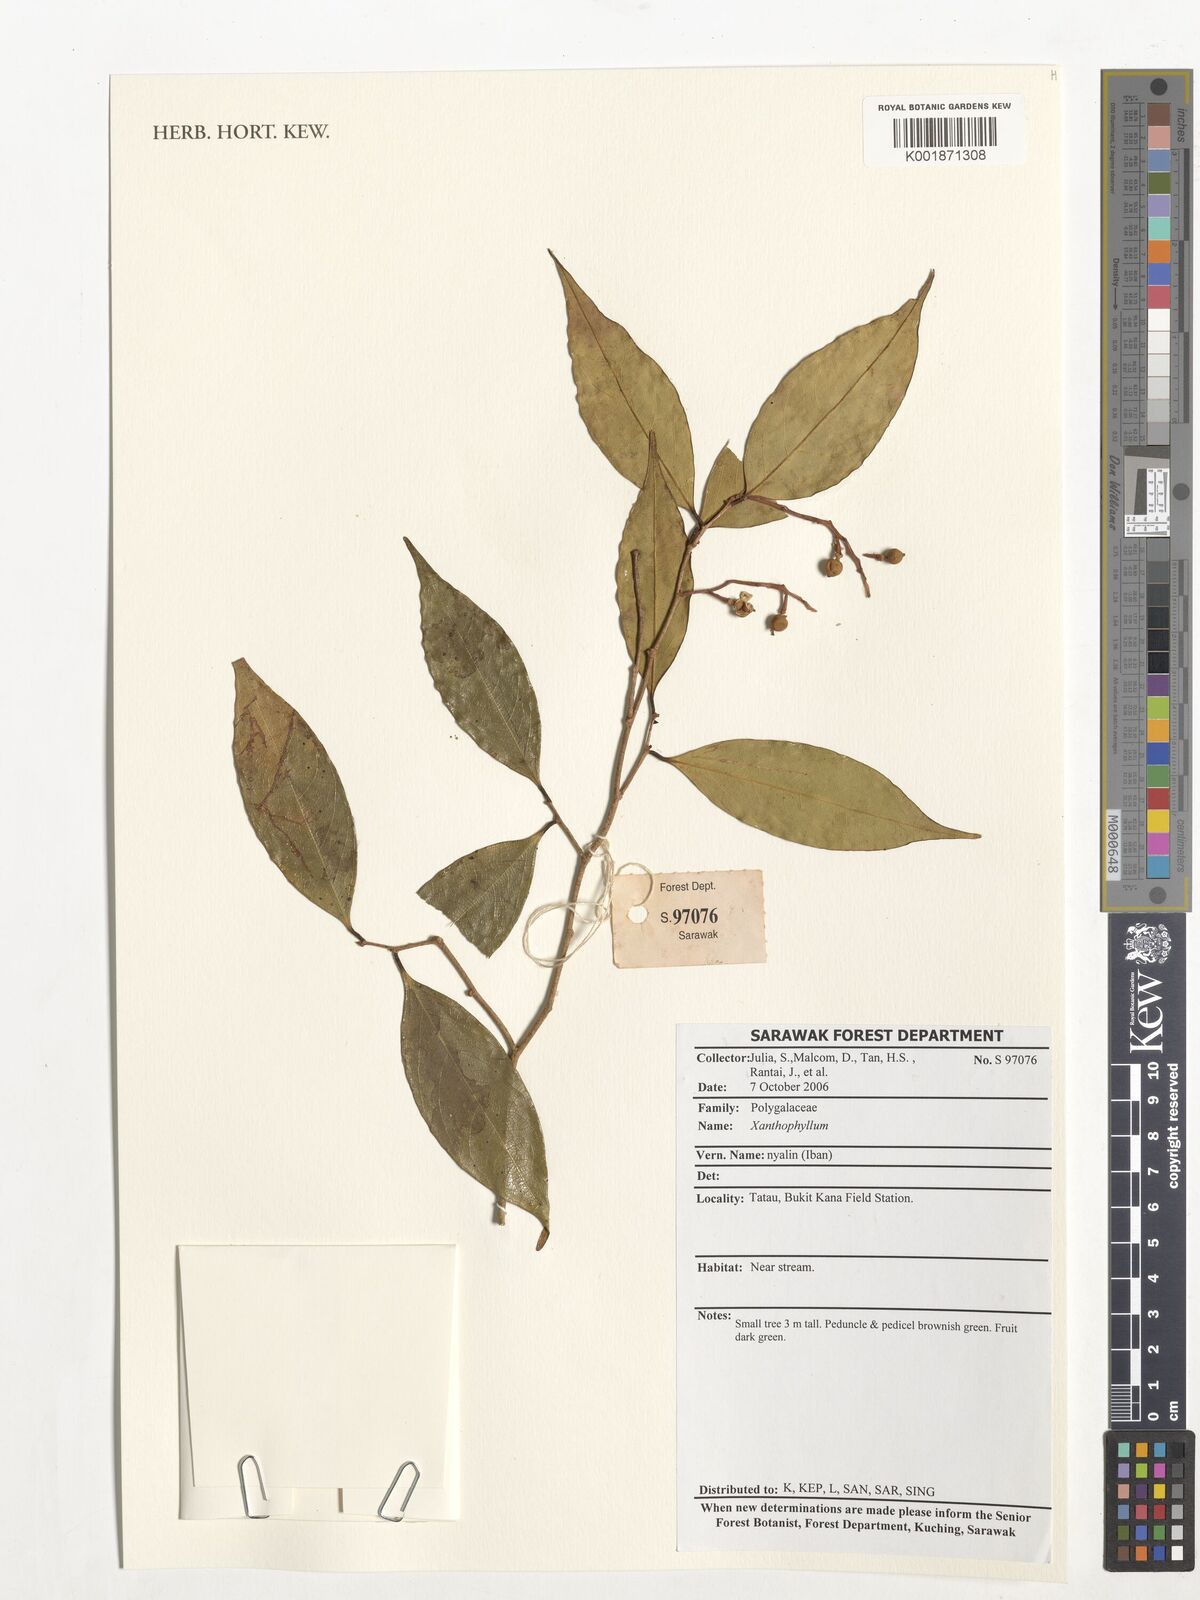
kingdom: Plantae
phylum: Tracheophyta
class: Magnoliopsida
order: Fabales
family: Polygalaceae
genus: Xanthophyllum
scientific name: Xanthophyllum
